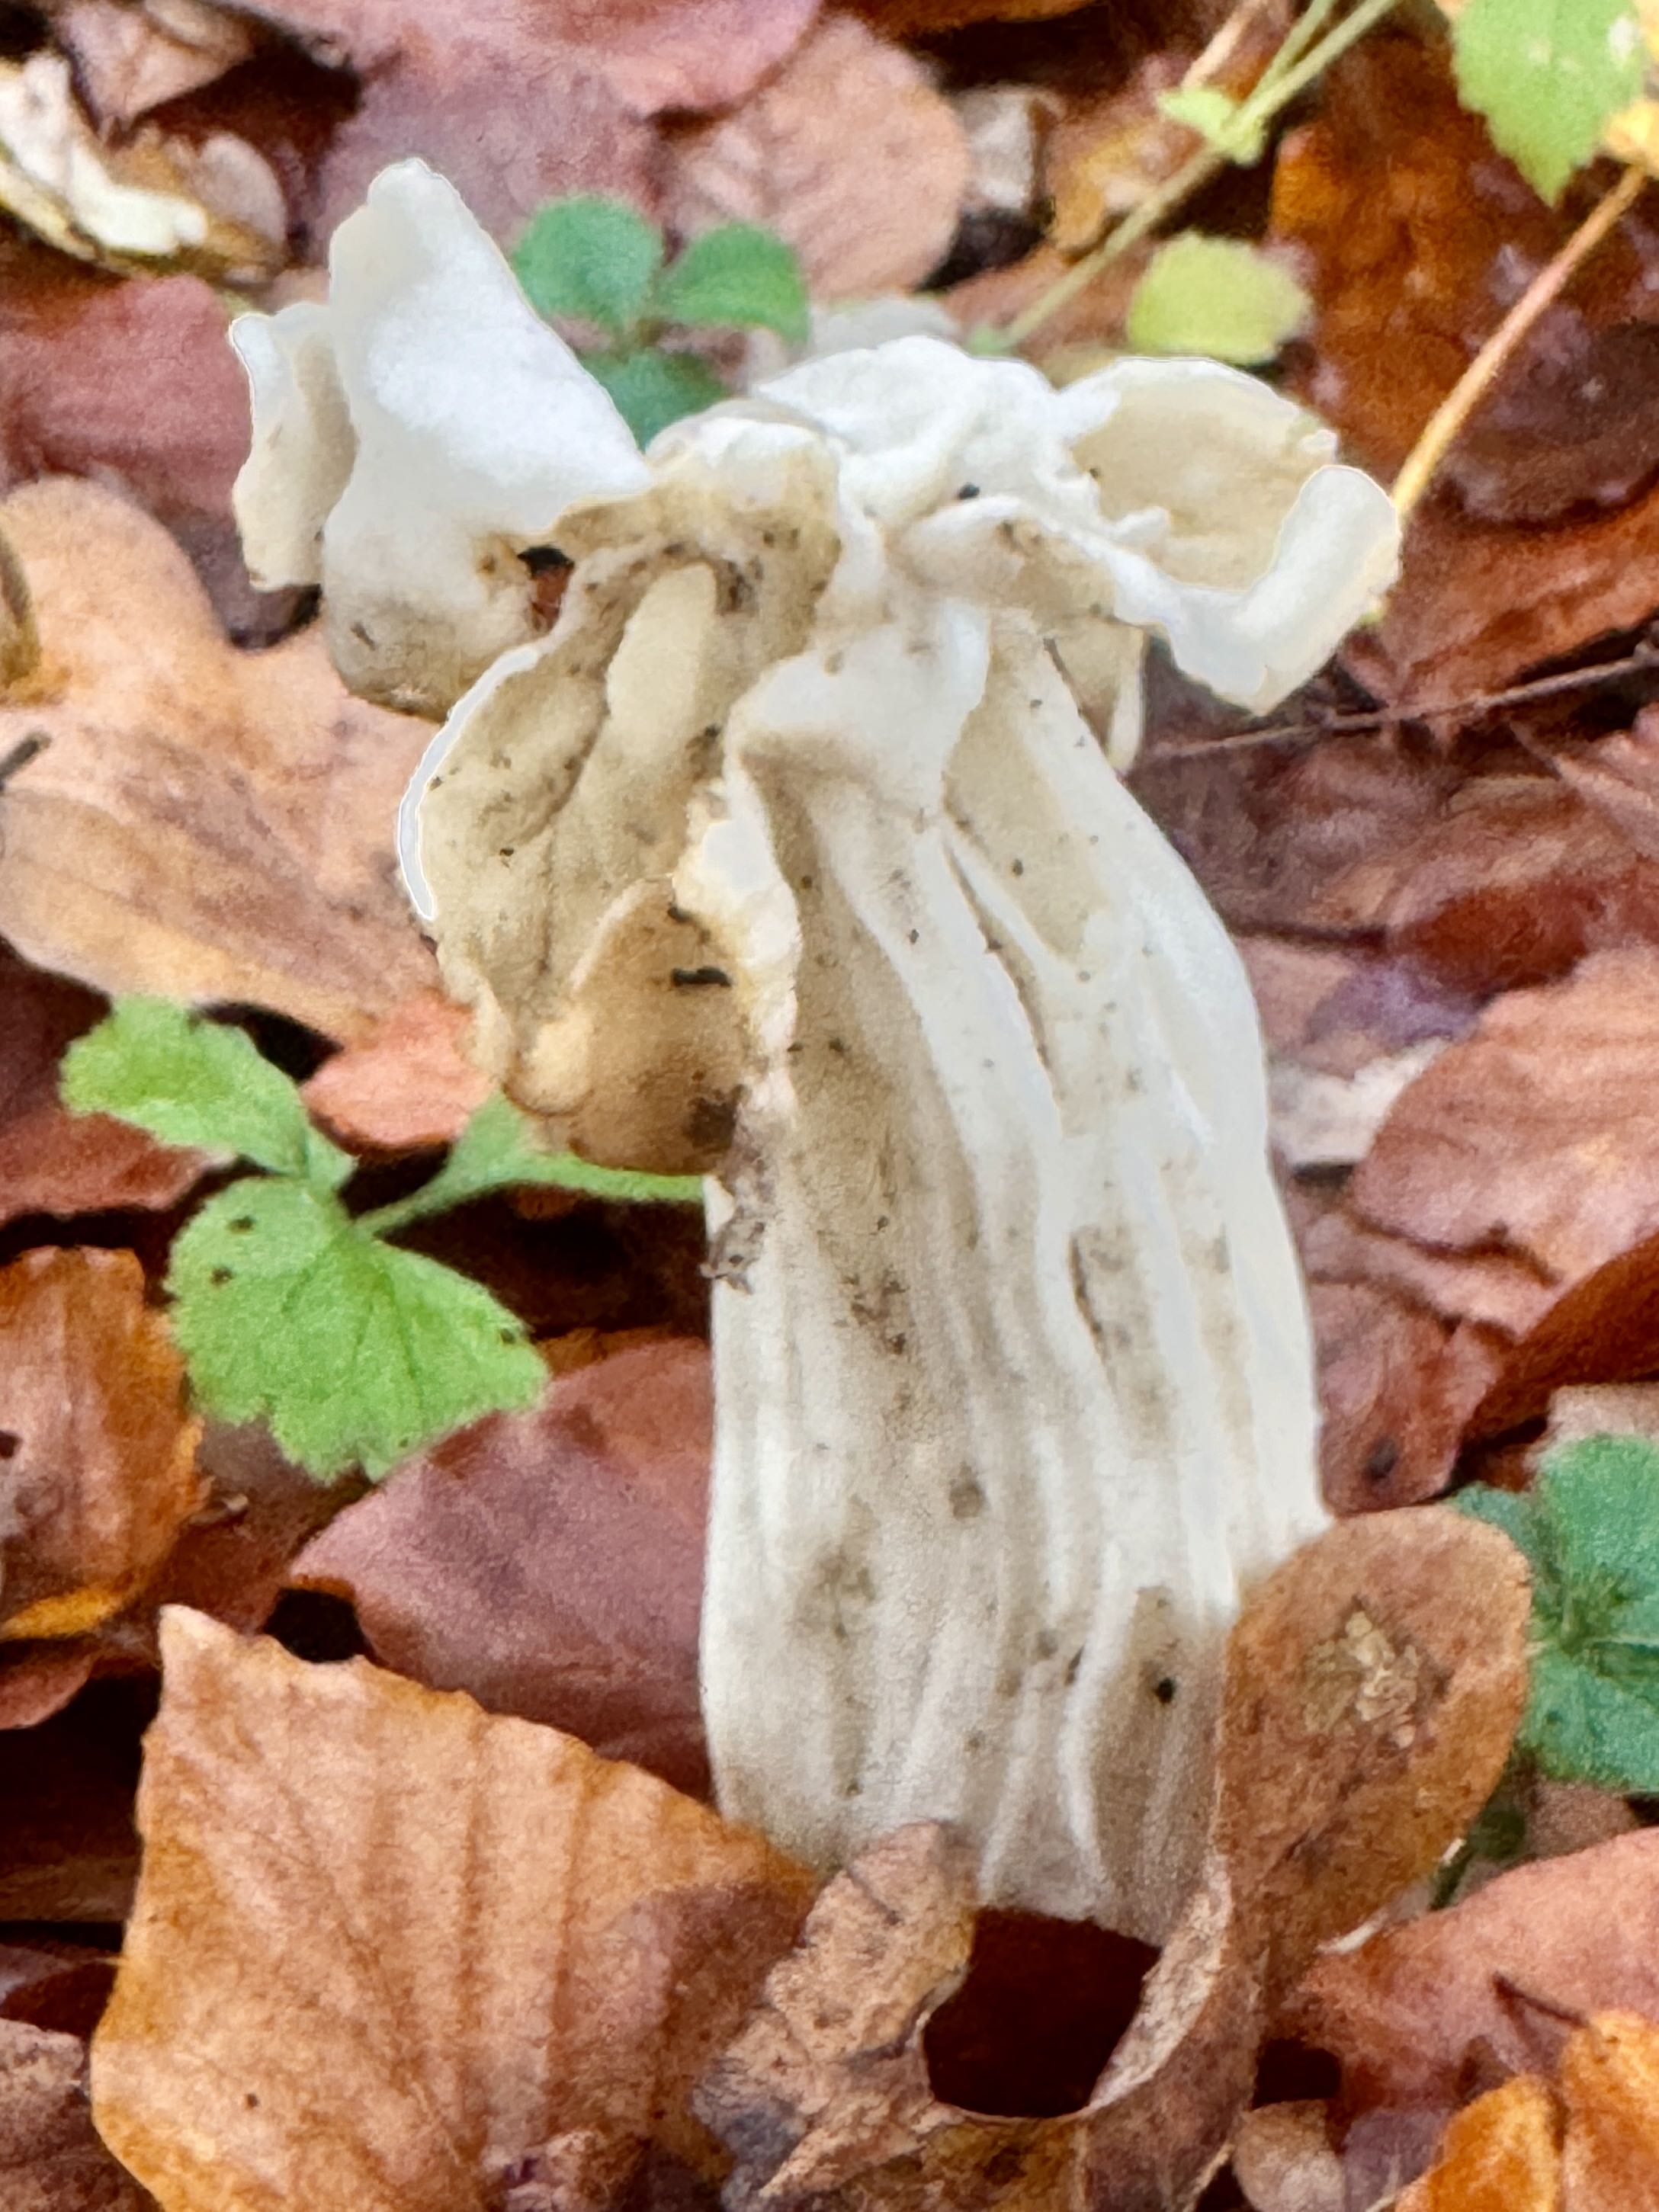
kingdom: Fungi
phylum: Ascomycota
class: Pezizomycetes
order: Pezizales
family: Helvellaceae
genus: Helvella
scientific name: Helvella crispa
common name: kruset foldhat
